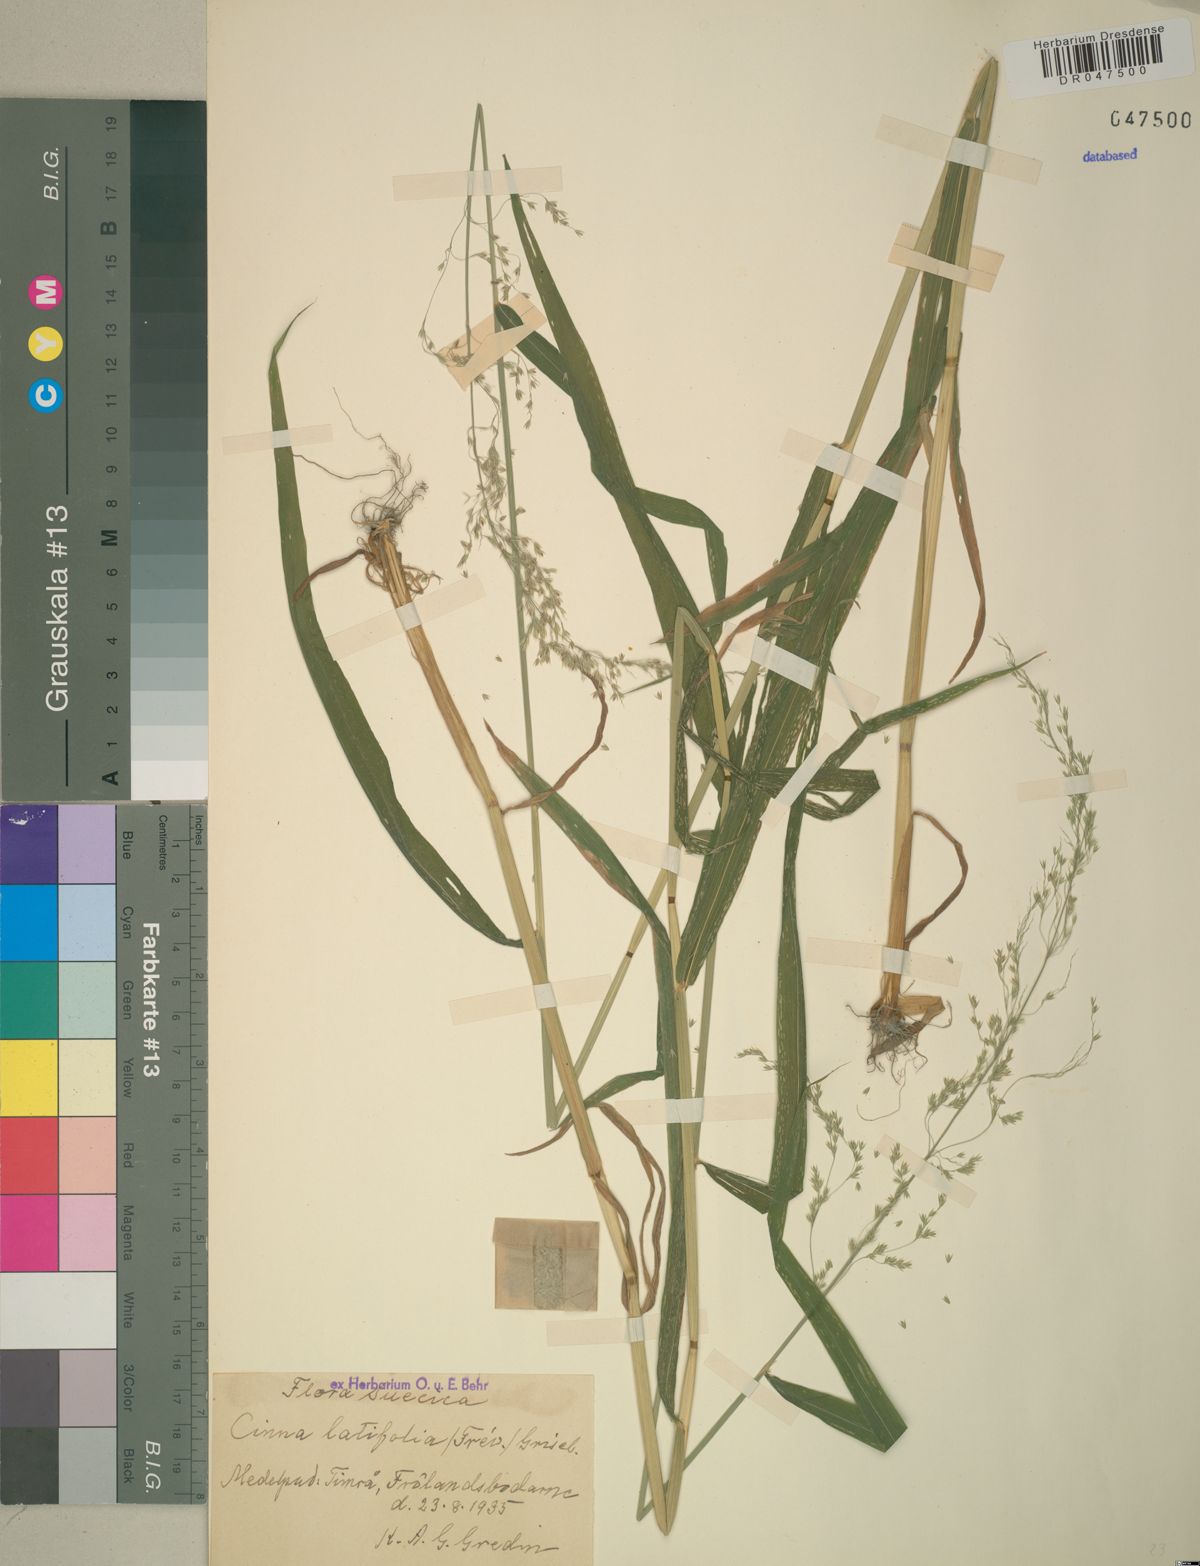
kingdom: Plantae
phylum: Tracheophyta
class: Liliopsida
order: Poales
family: Poaceae
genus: Cinna
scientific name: Cinna latifolia
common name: Drooping woodreed
